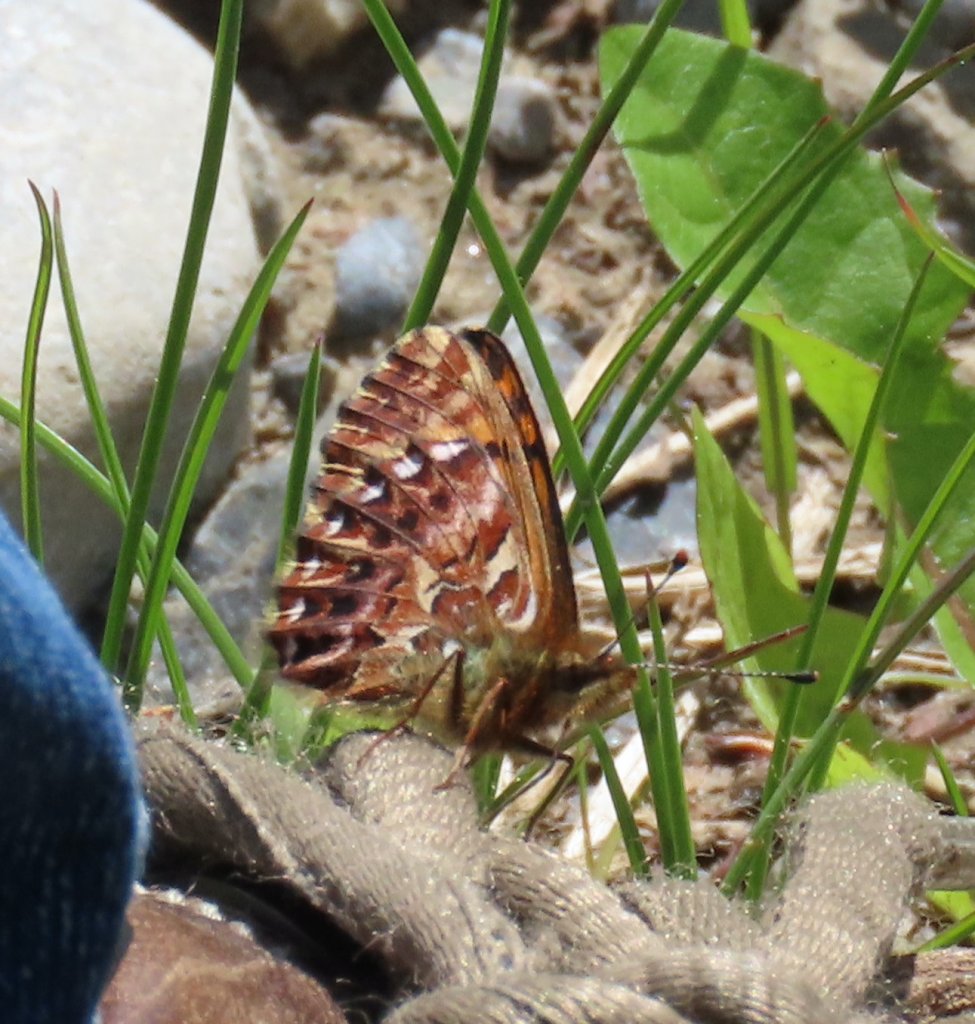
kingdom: Animalia
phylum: Arthropoda
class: Insecta
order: Lepidoptera
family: Nymphalidae
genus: Boloria
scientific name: Boloria chariclea
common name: Arctic Fritillary
